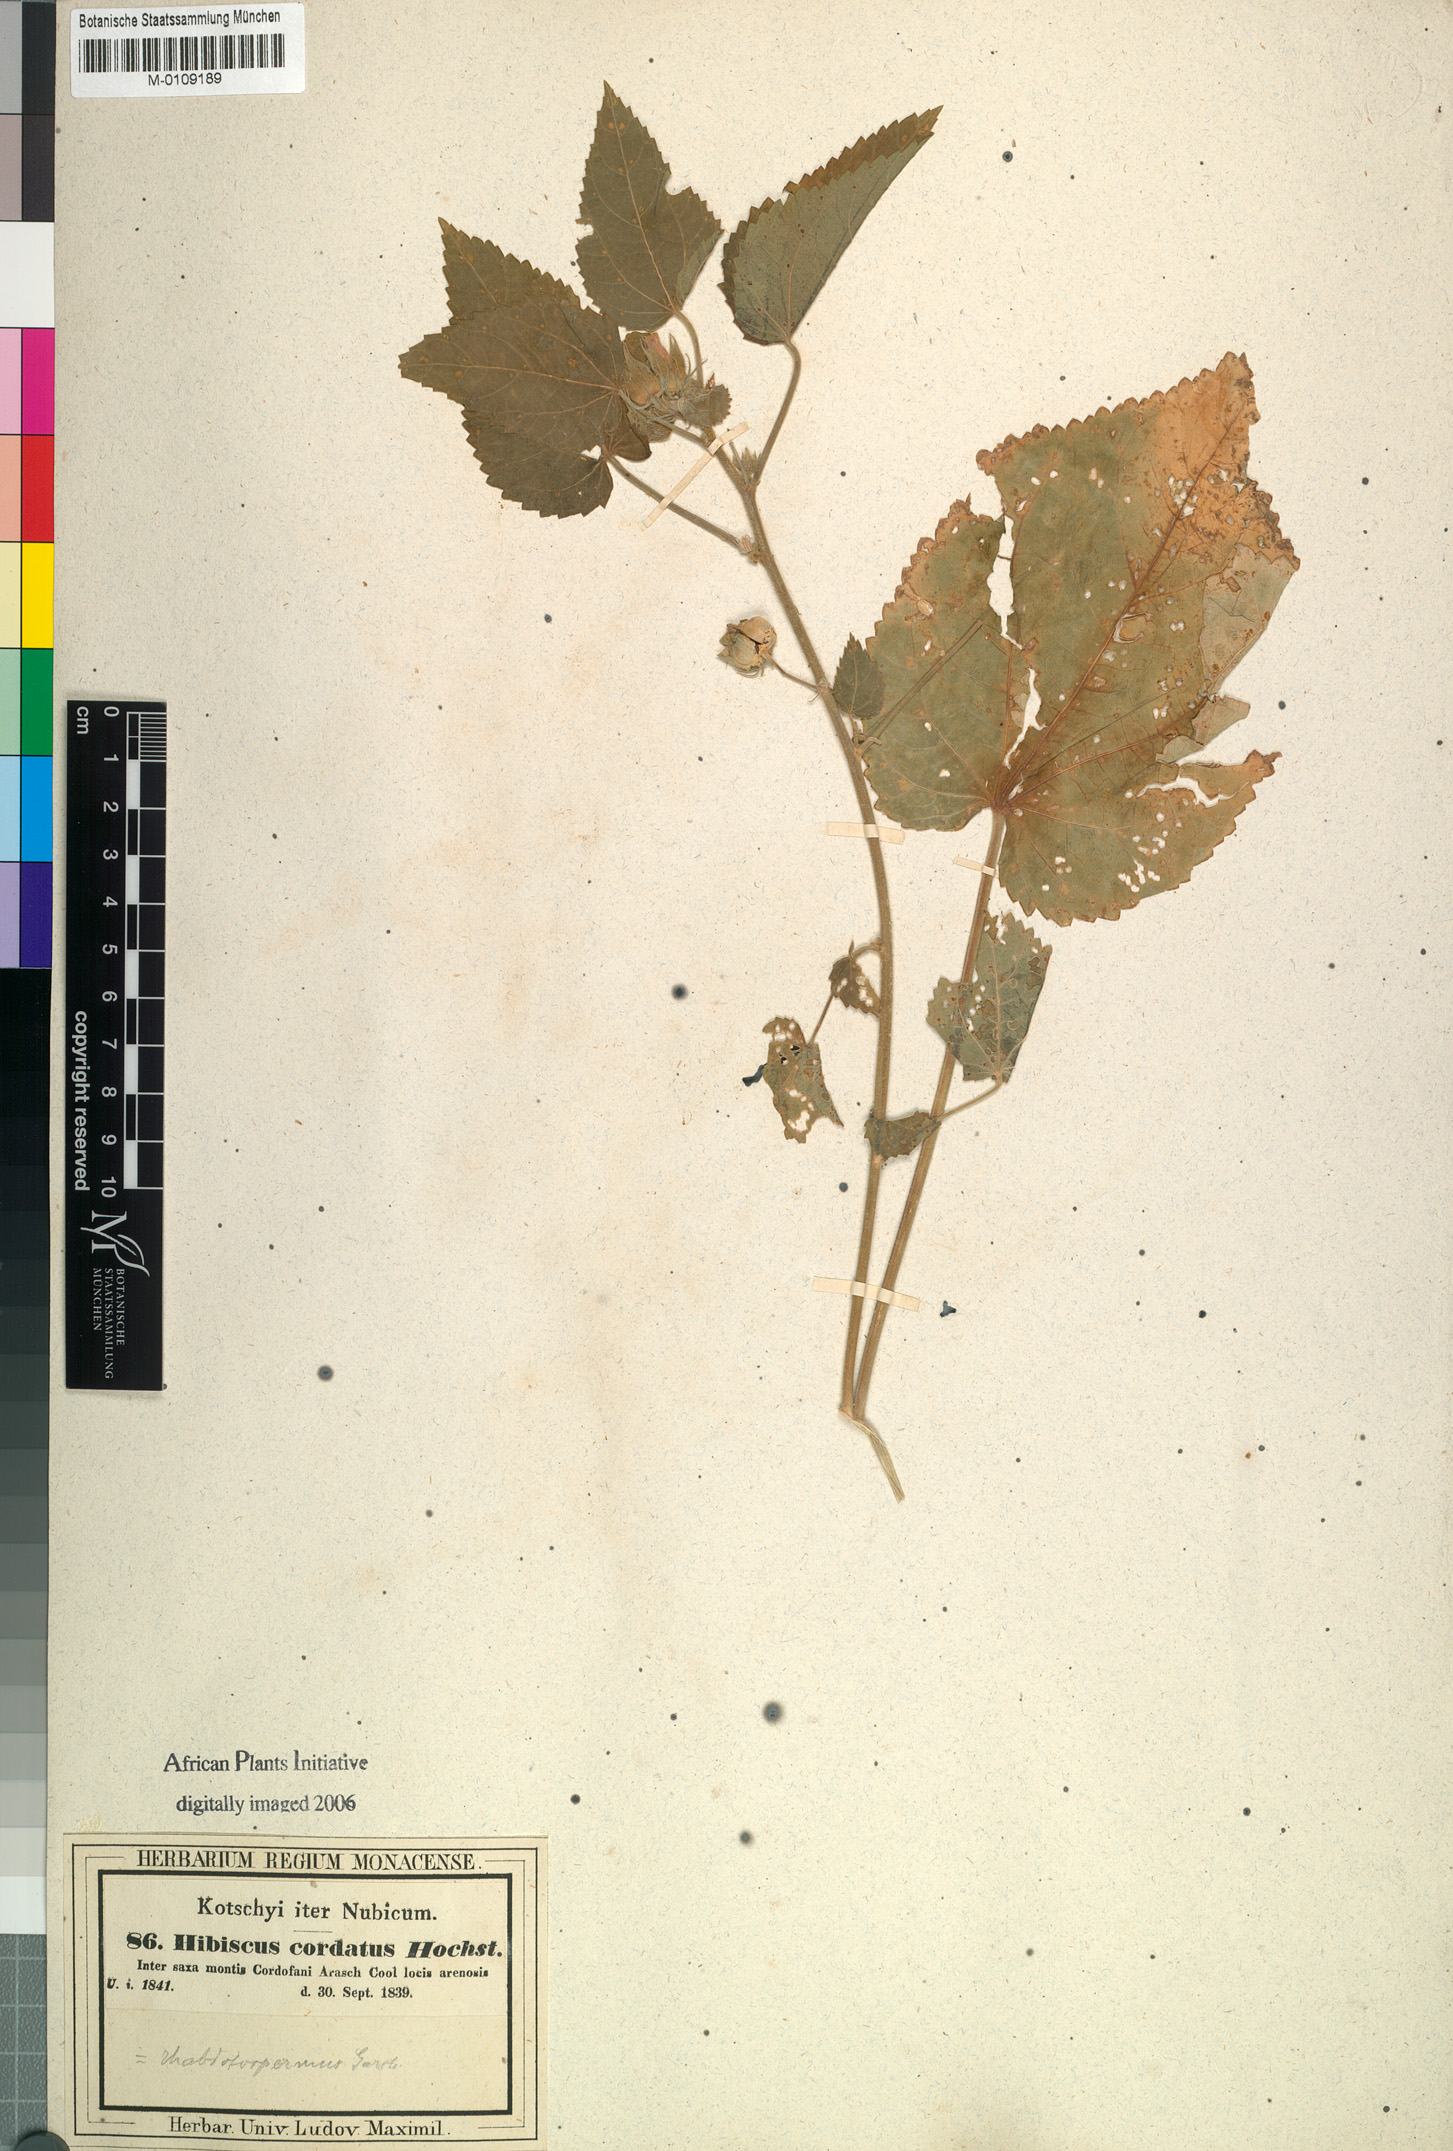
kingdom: Plantae
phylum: Tracheophyta
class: Magnoliopsida
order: Malvales
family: Malvaceae
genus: Hibiscus
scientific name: Hibiscus rhabdotospermus
